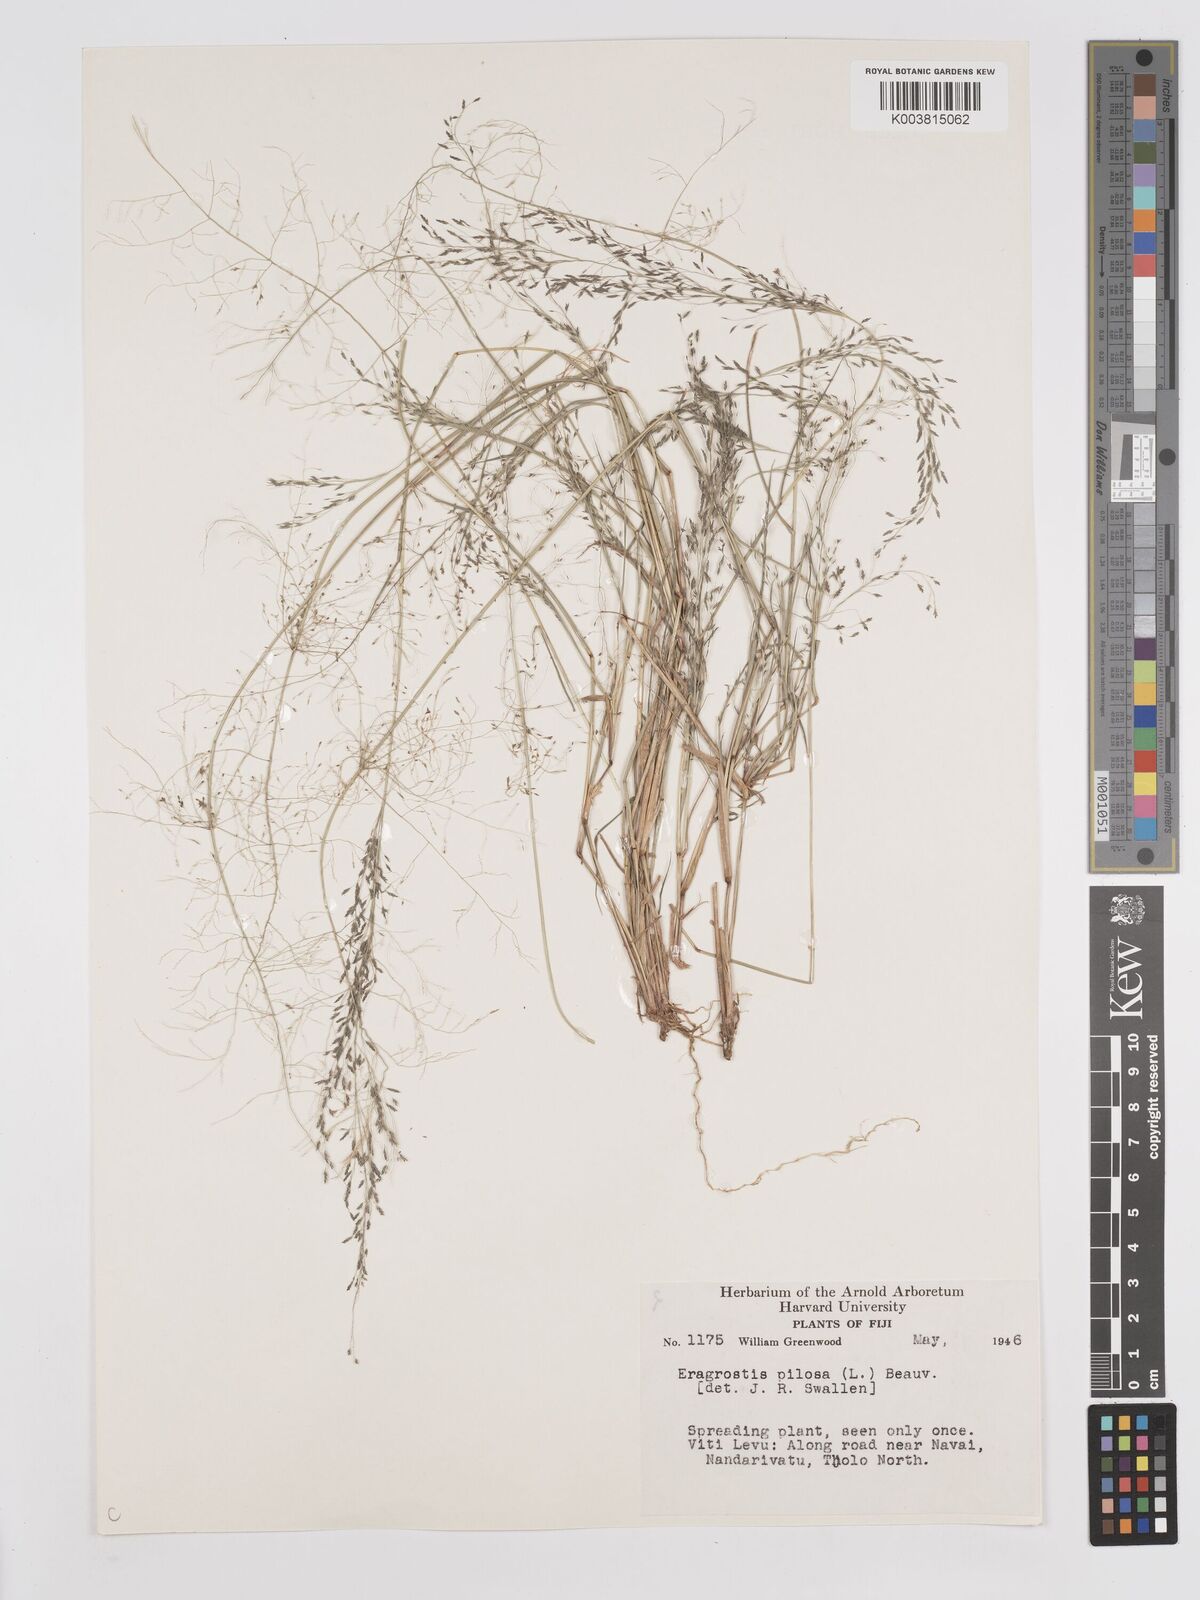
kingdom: Plantae
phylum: Tracheophyta
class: Liliopsida
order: Poales
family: Poaceae
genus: Eragrostis
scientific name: Eragrostis pilosa
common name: Indian lovegrass
